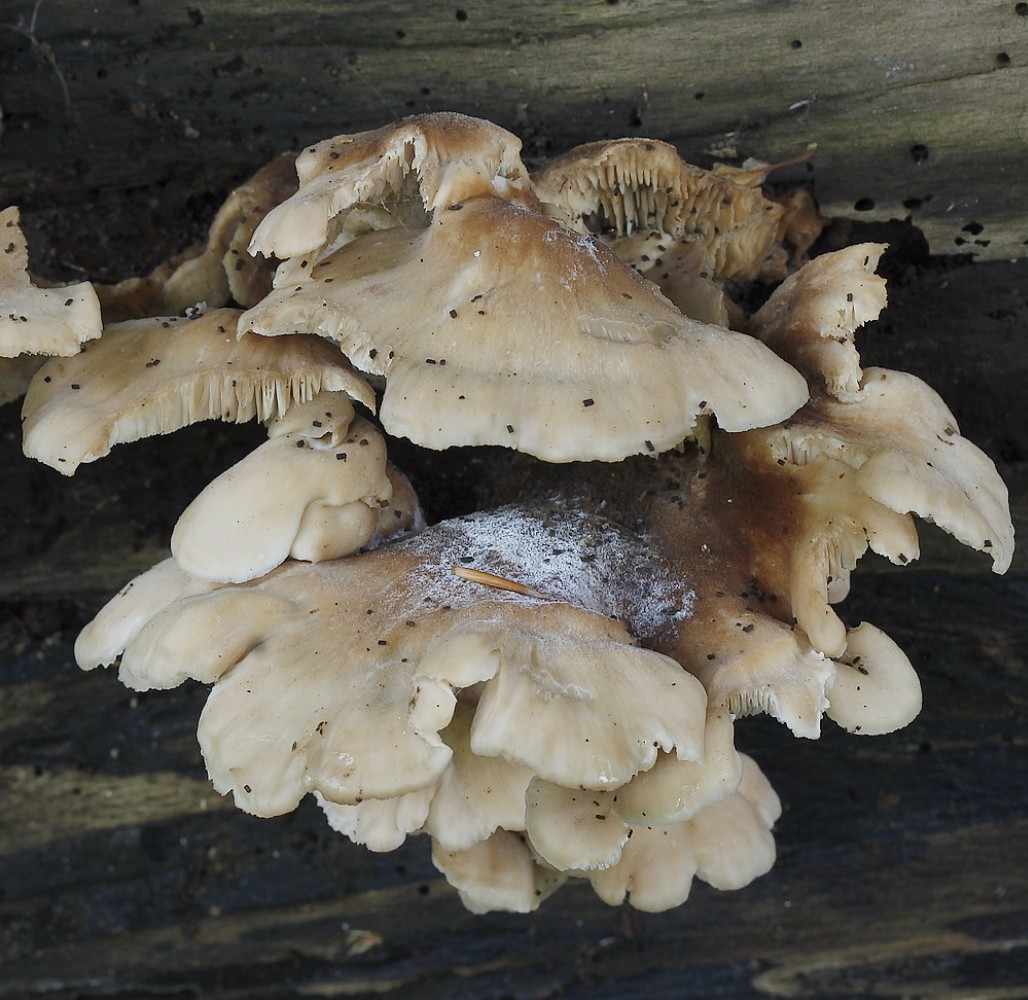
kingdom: Fungi
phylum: Basidiomycota
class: Agaricomycetes
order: Russulales
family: Auriscalpiaceae
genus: Lentinellus
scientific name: Lentinellus ursinus
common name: børstehåret savbladhat
